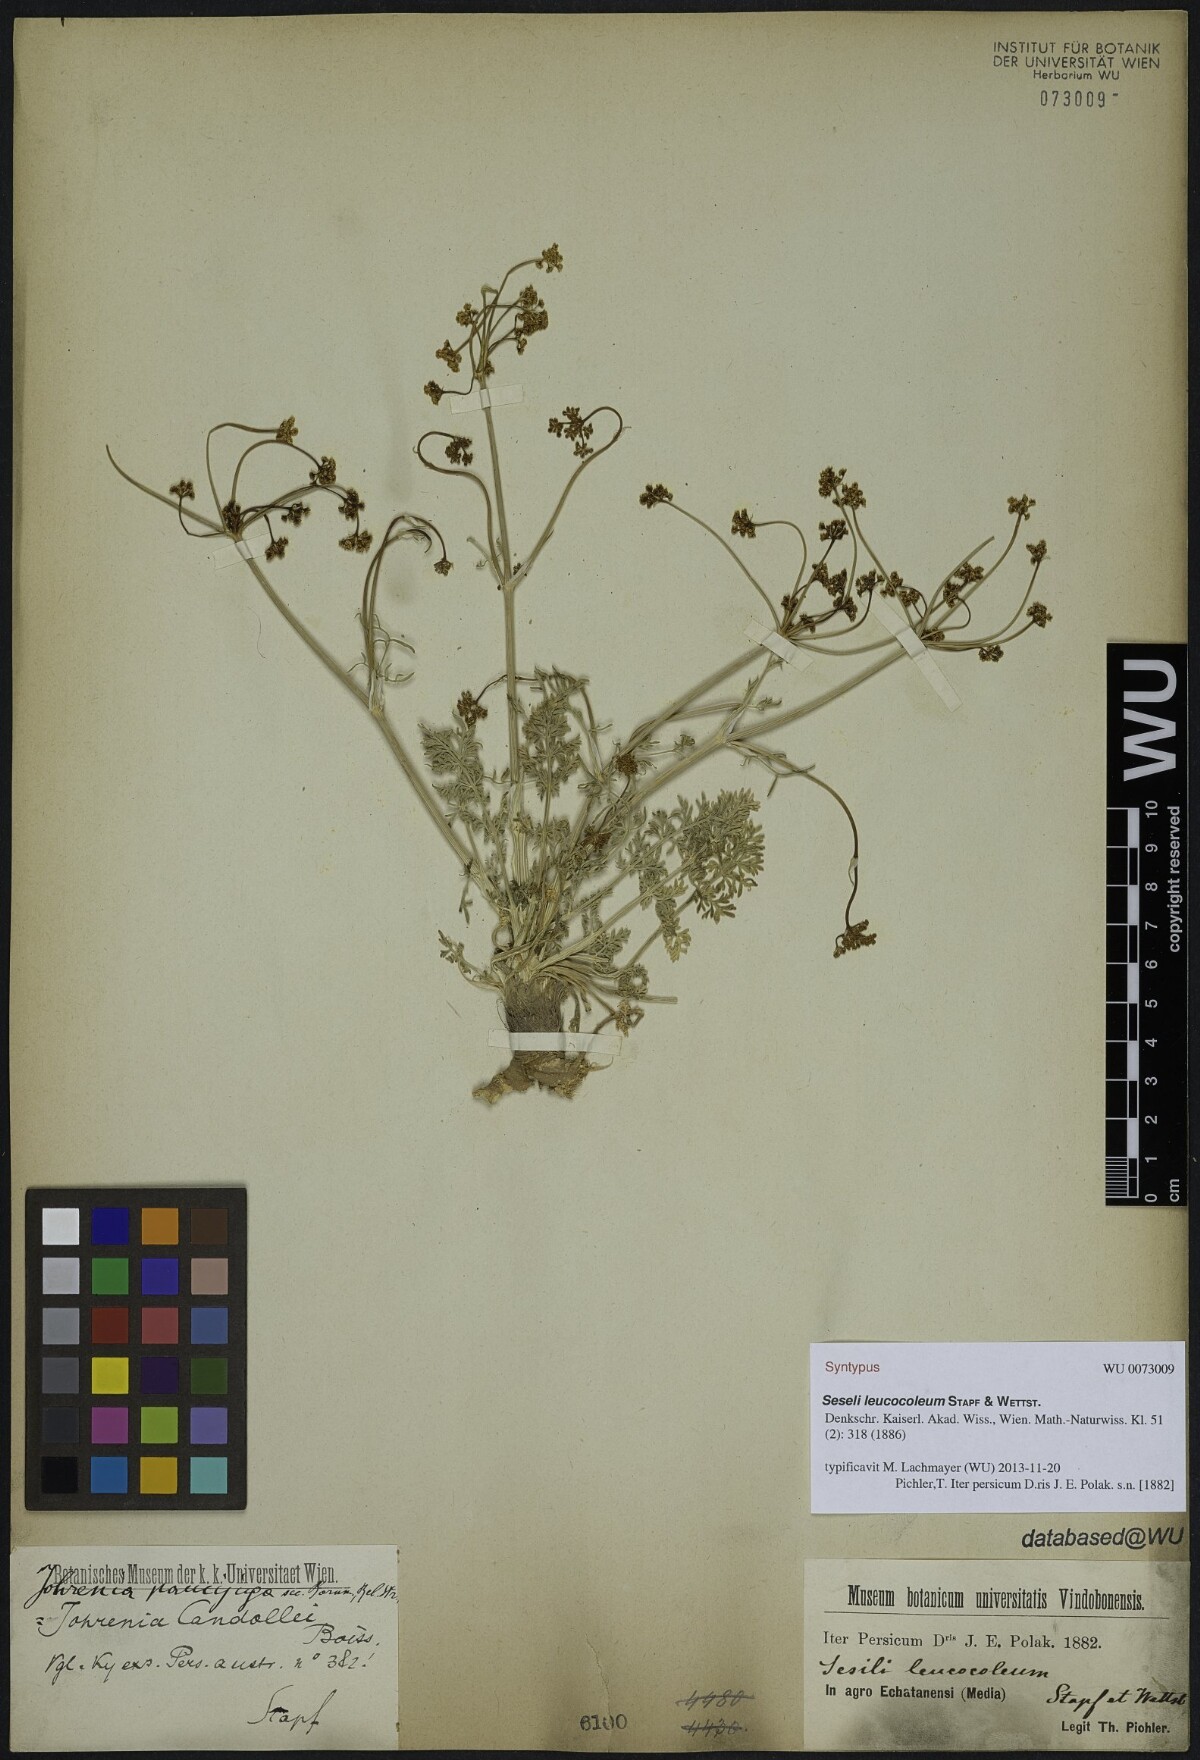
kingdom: Plantae
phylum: Tracheophyta
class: Magnoliopsida
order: Apiales
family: Apiaceae
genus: Dichoropetalum
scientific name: Dichoropetalum paucijugum
